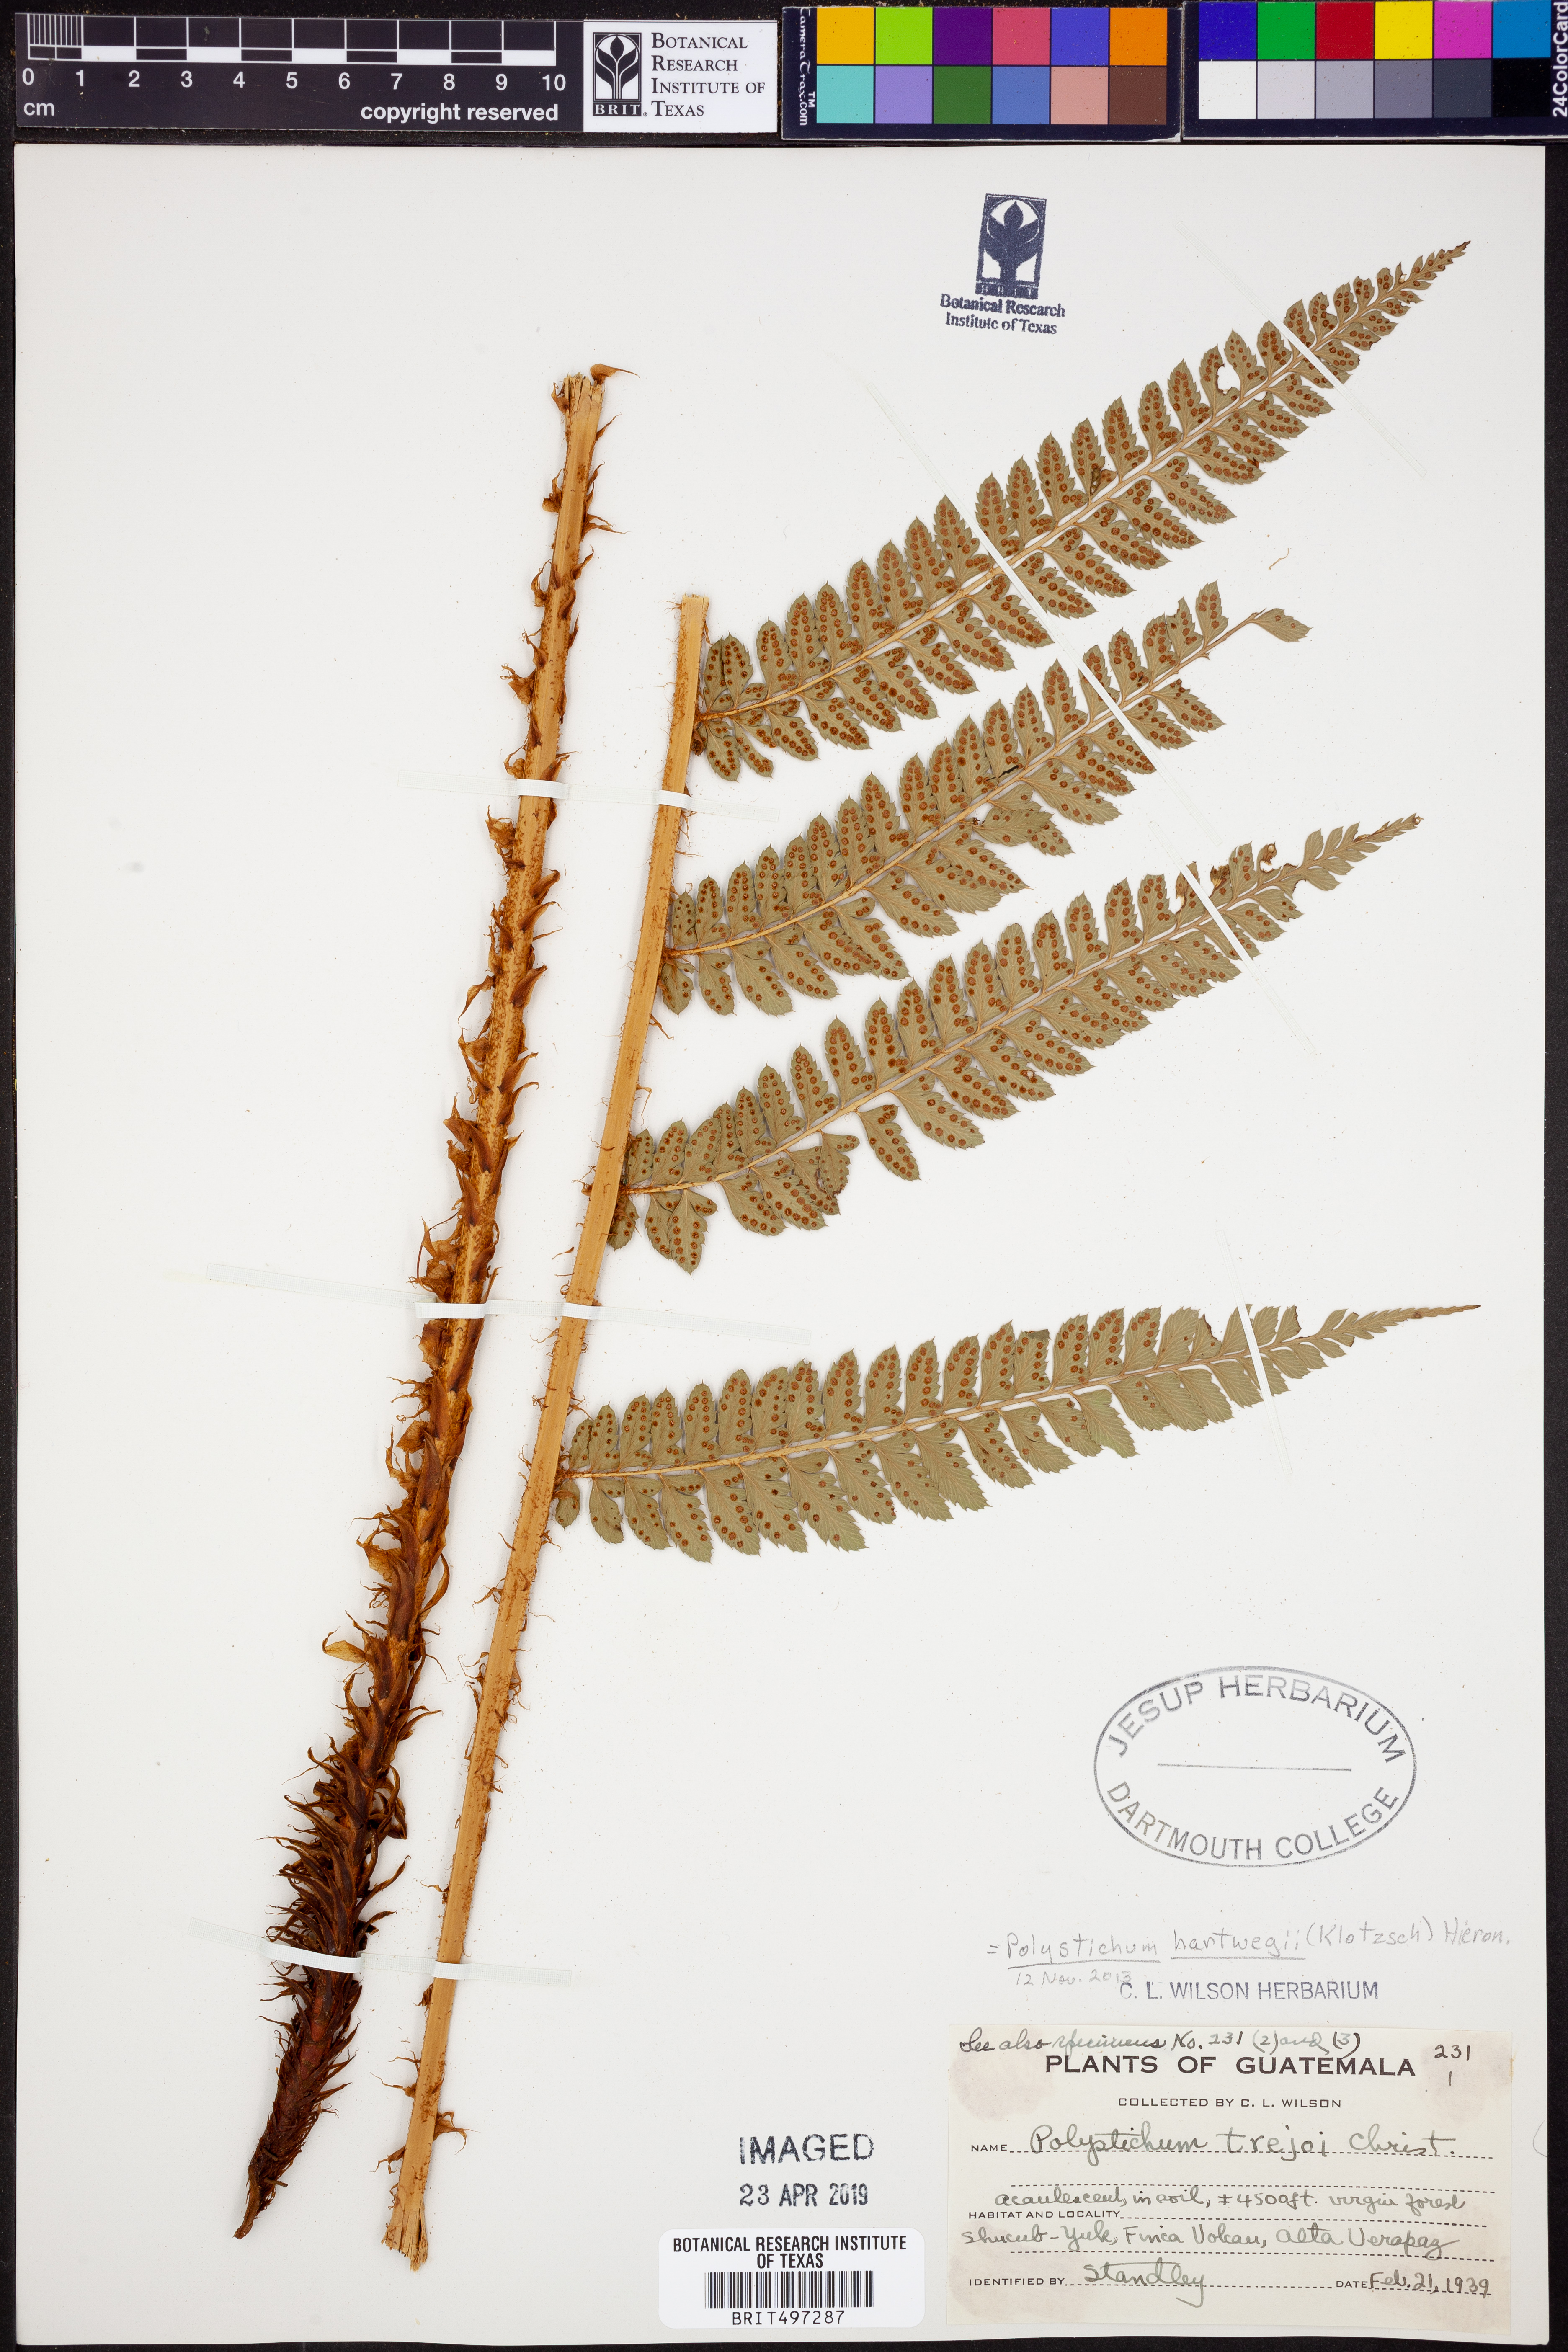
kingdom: Plantae
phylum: Tracheophyta
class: Polypodiopsida
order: Polypodiales
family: Dryopteridaceae
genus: Polystichum
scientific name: Polystichum hartwegii
